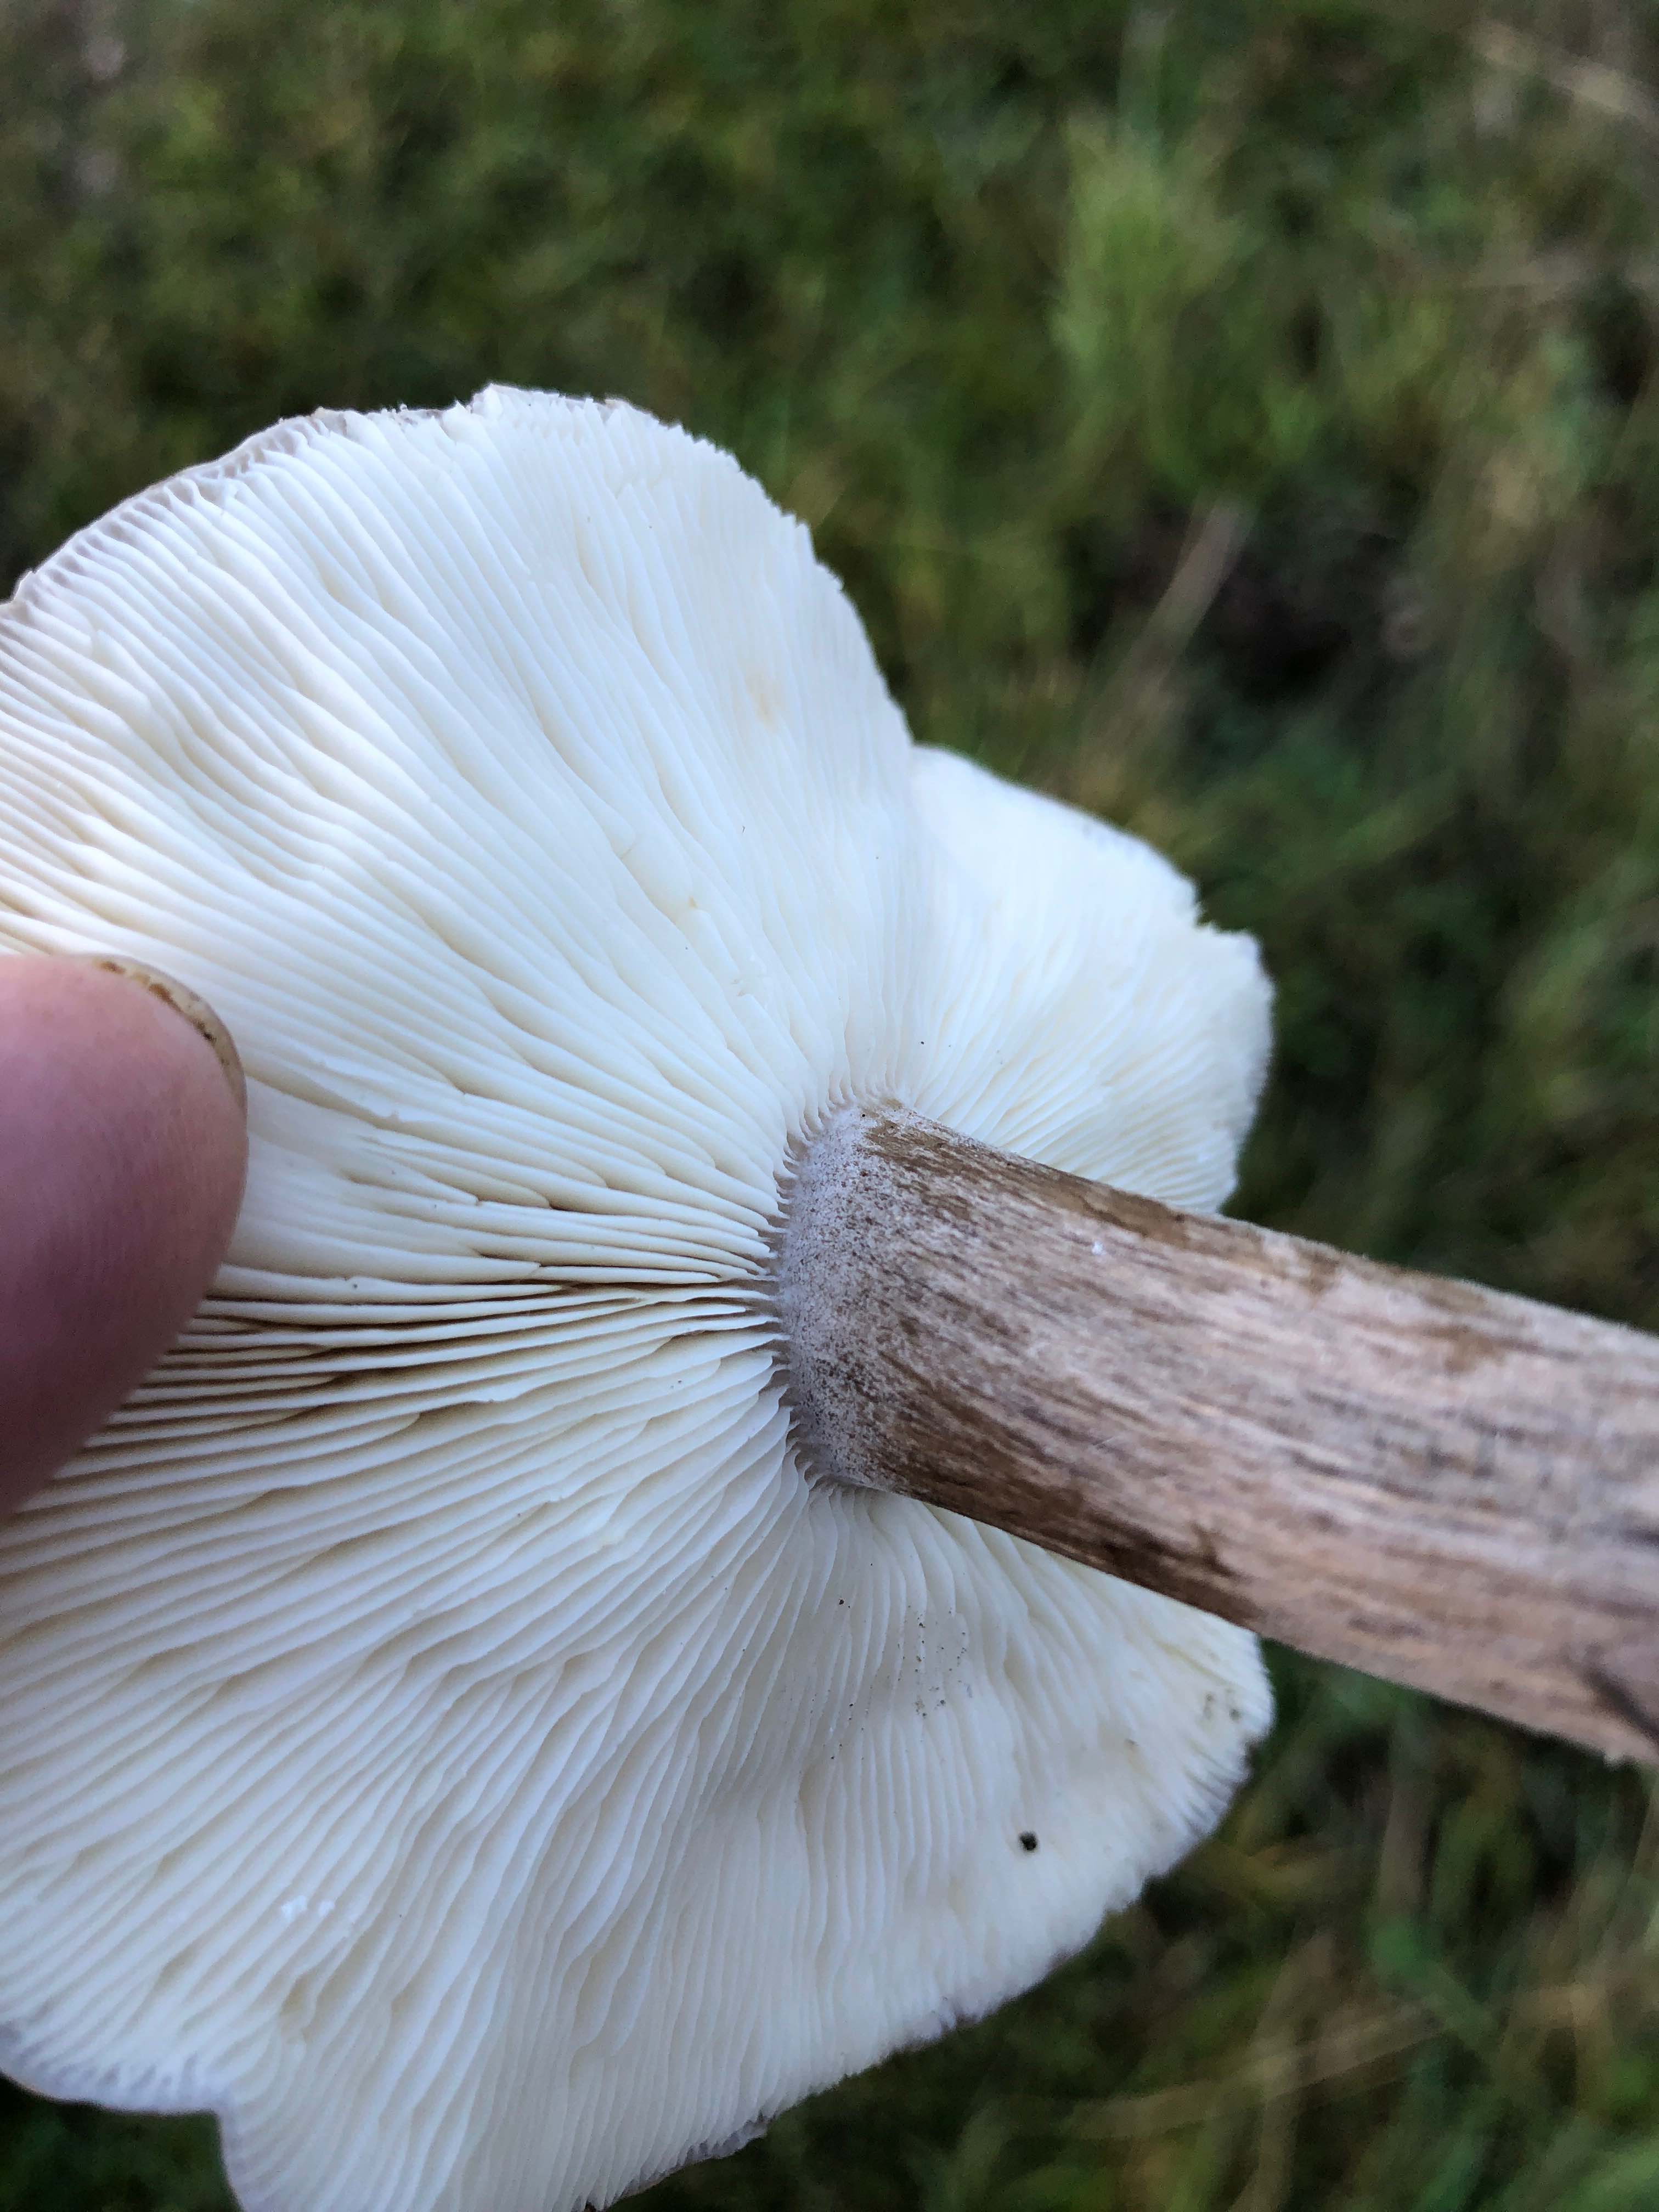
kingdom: Fungi
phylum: Basidiomycota
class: Agaricomycetes
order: Agaricales
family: Tricholomataceae
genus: Melanoleuca
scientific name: Melanoleuca
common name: munkehat
